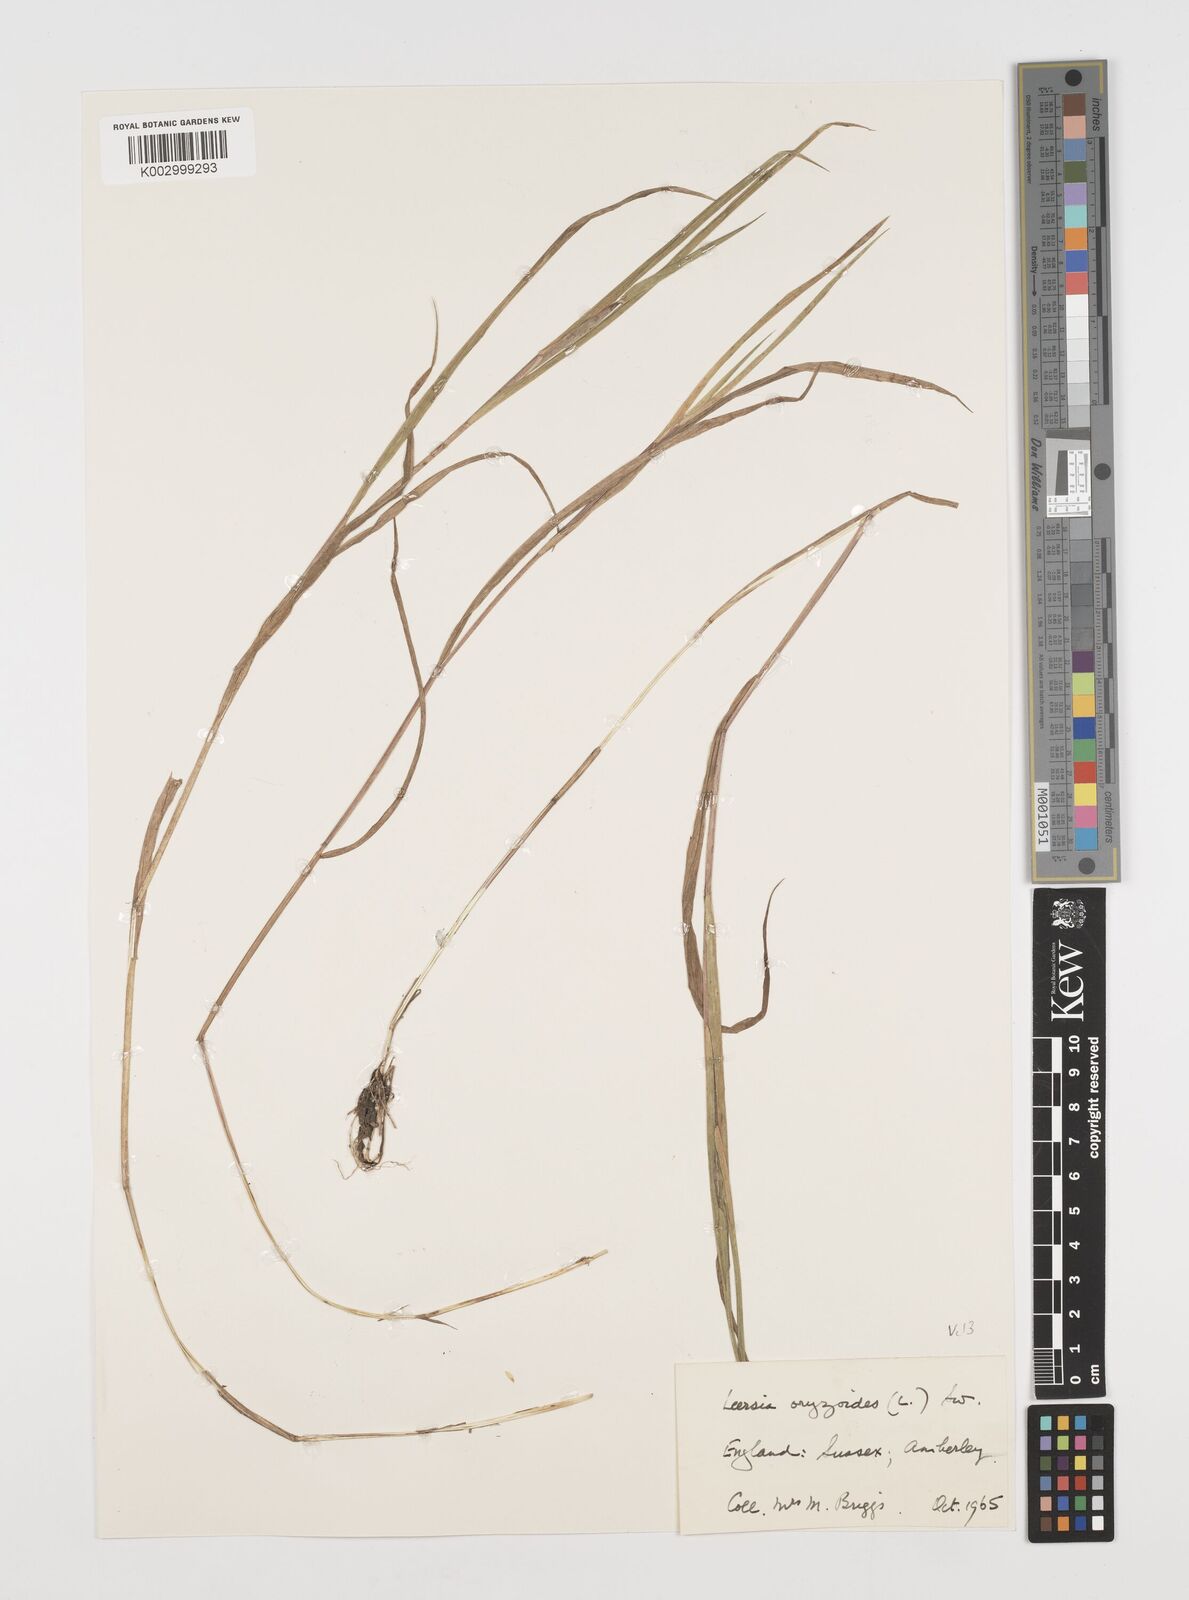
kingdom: Plantae
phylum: Tracheophyta
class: Liliopsida
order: Poales
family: Poaceae
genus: Leersia
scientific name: Leersia oryzoides
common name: Cut-grass
